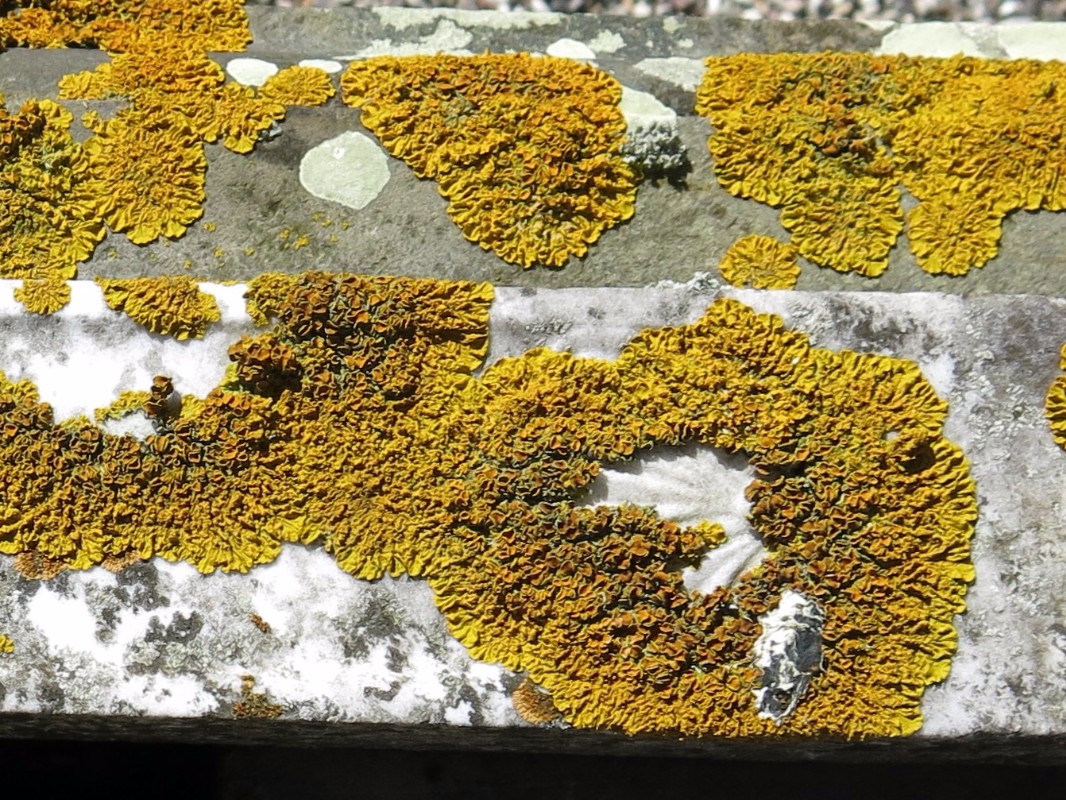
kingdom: Fungi
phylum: Ascomycota
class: Lecanoromycetes
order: Teloschistales
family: Teloschistaceae
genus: Xanthoria
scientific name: Xanthoria parietina
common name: almindelig væggelav
